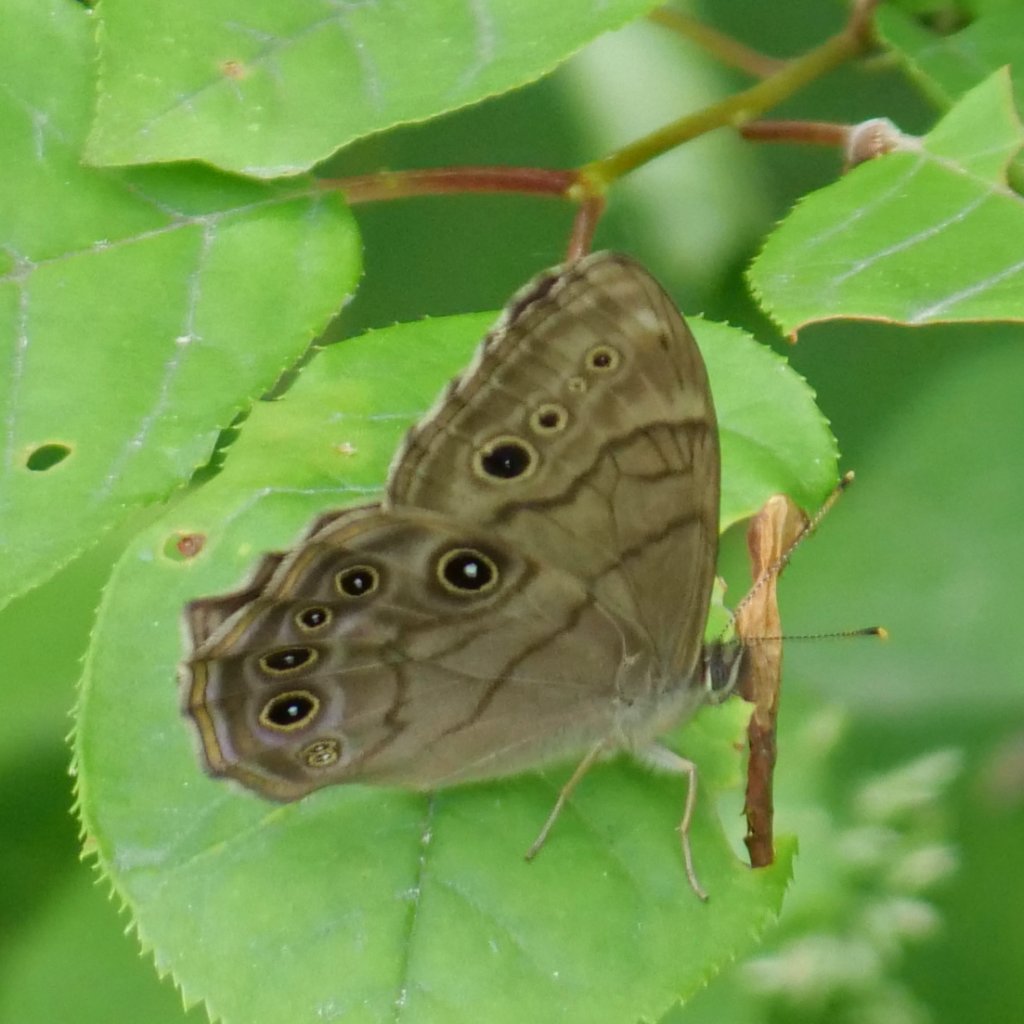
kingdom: Animalia
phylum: Arthropoda
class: Insecta
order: Lepidoptera
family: Nymphalidae
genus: Lethe
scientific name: Lethe anthedon
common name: Northern Pearly-Eye
